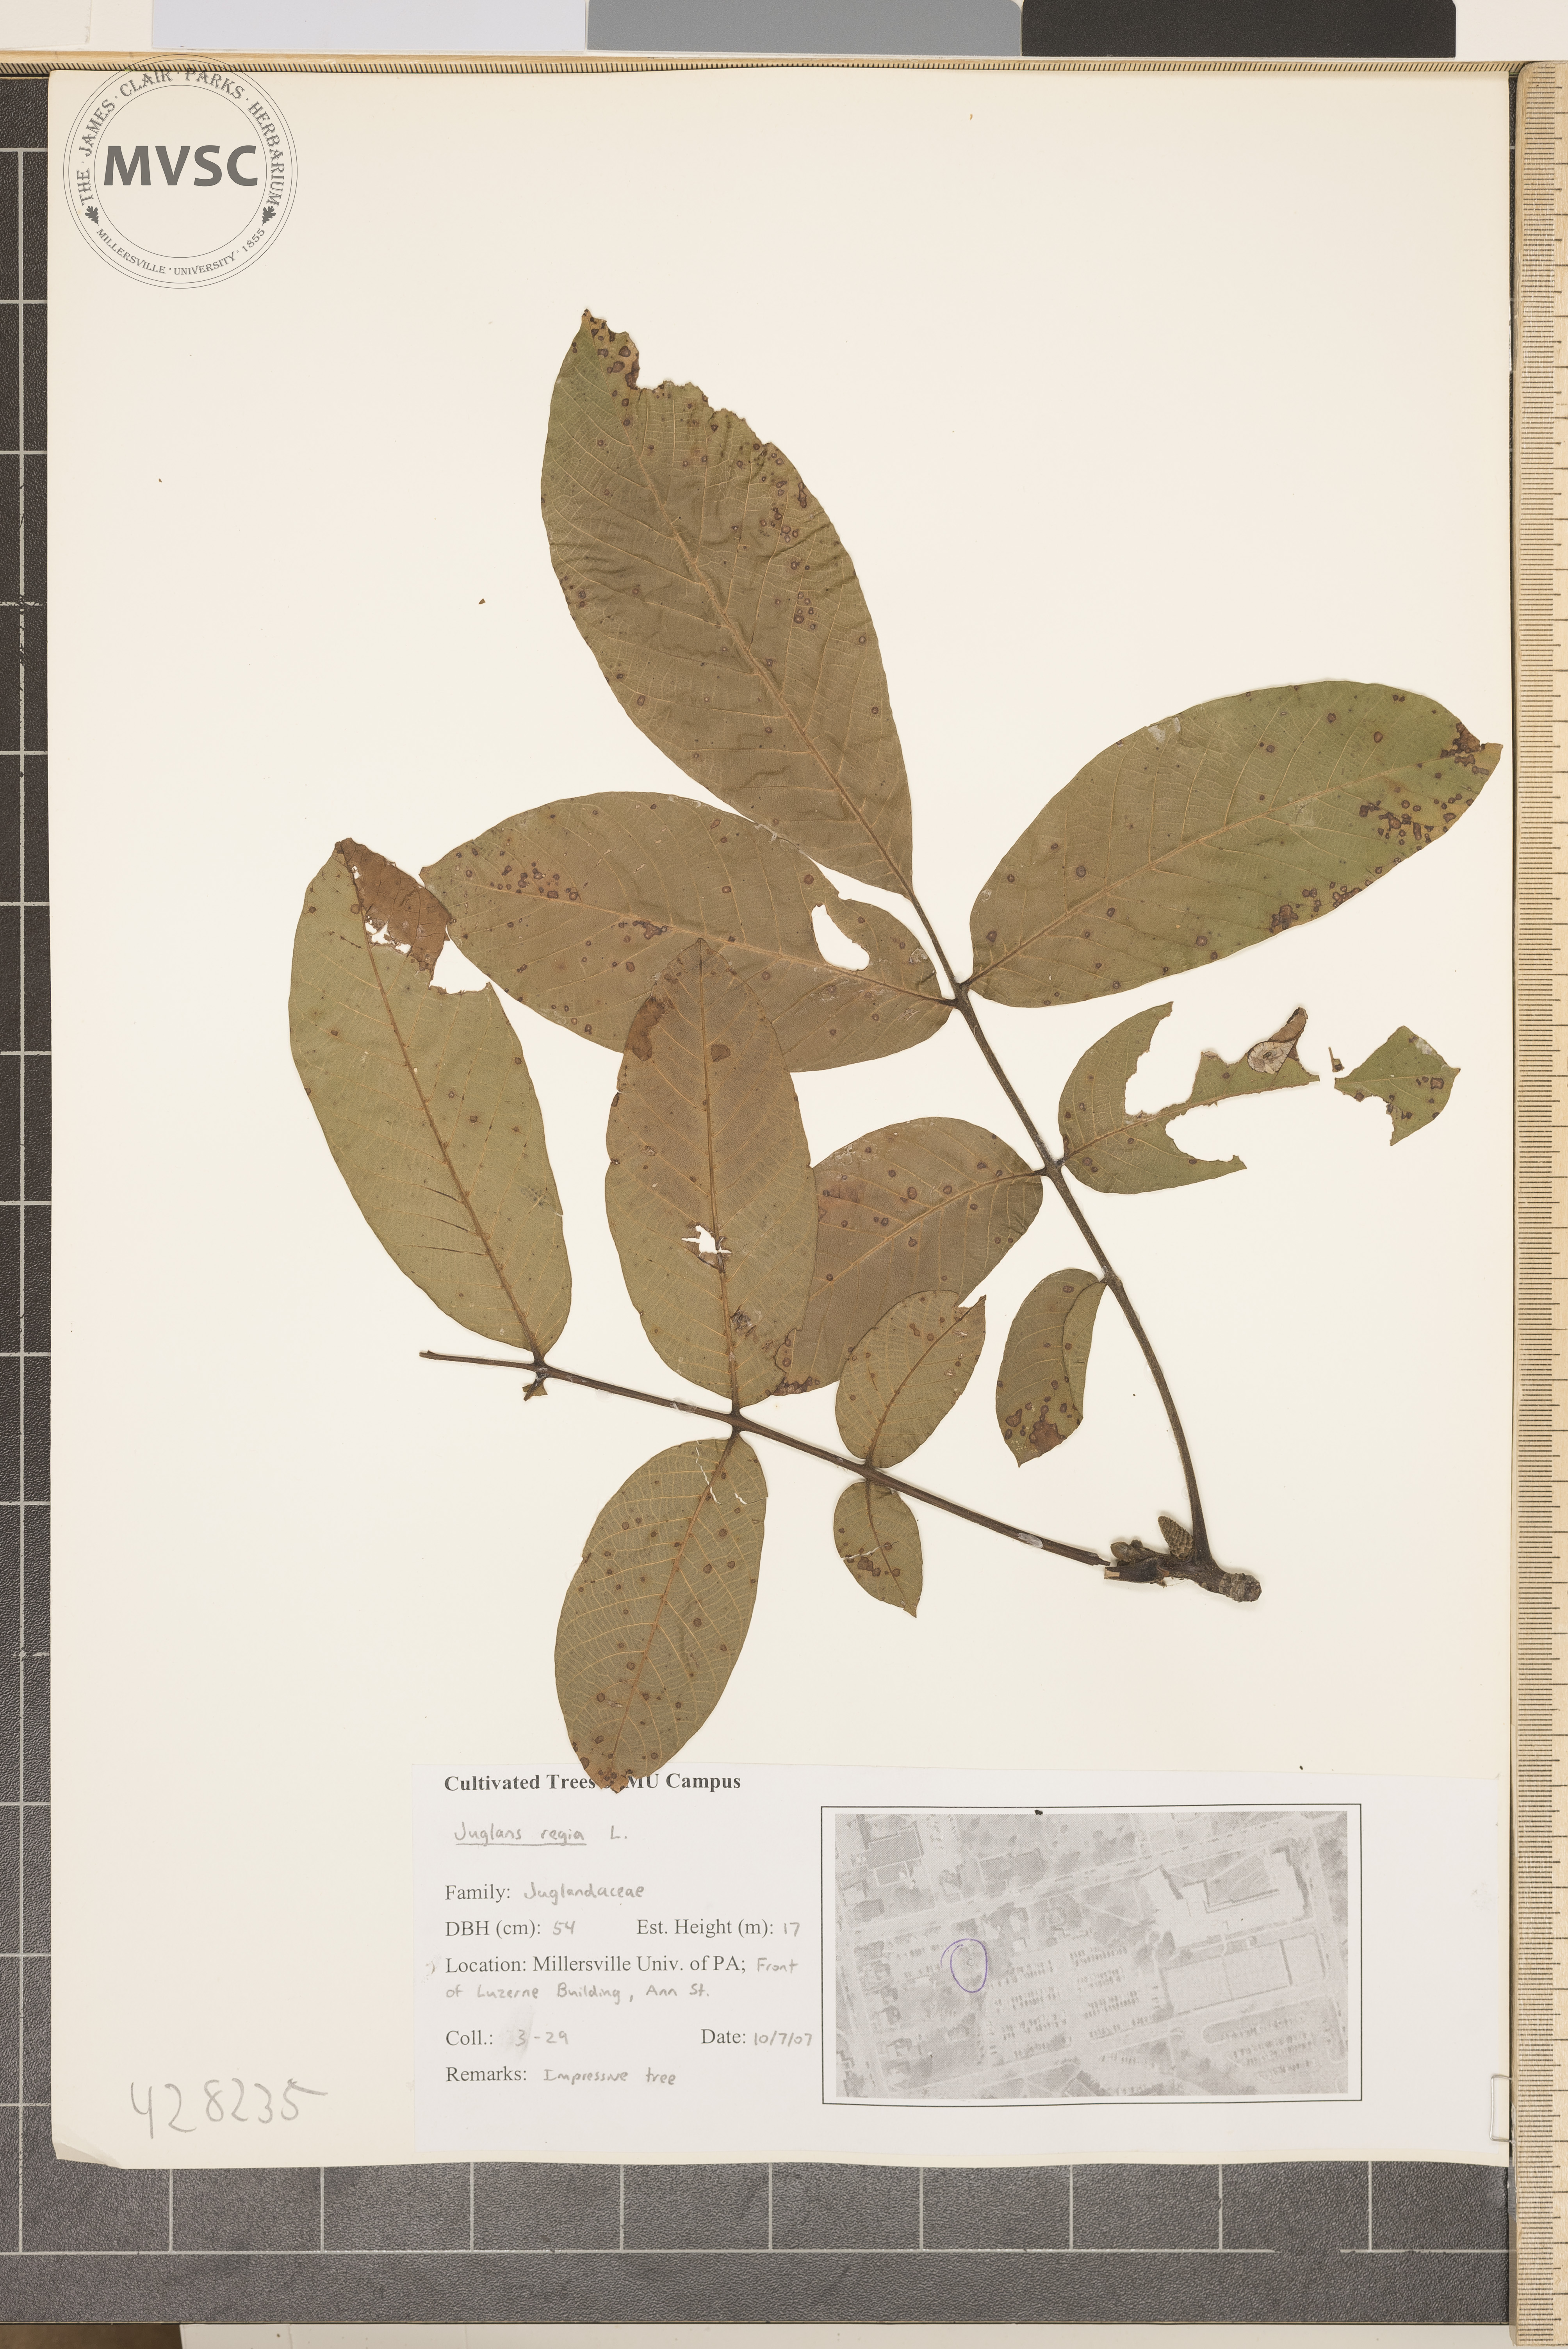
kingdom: Plantae
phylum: Tracheophyta
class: Magnoliopsida
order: Fagales
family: Juglandaceae
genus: Juglans
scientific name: Juglans regia
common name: Persian Walnut
